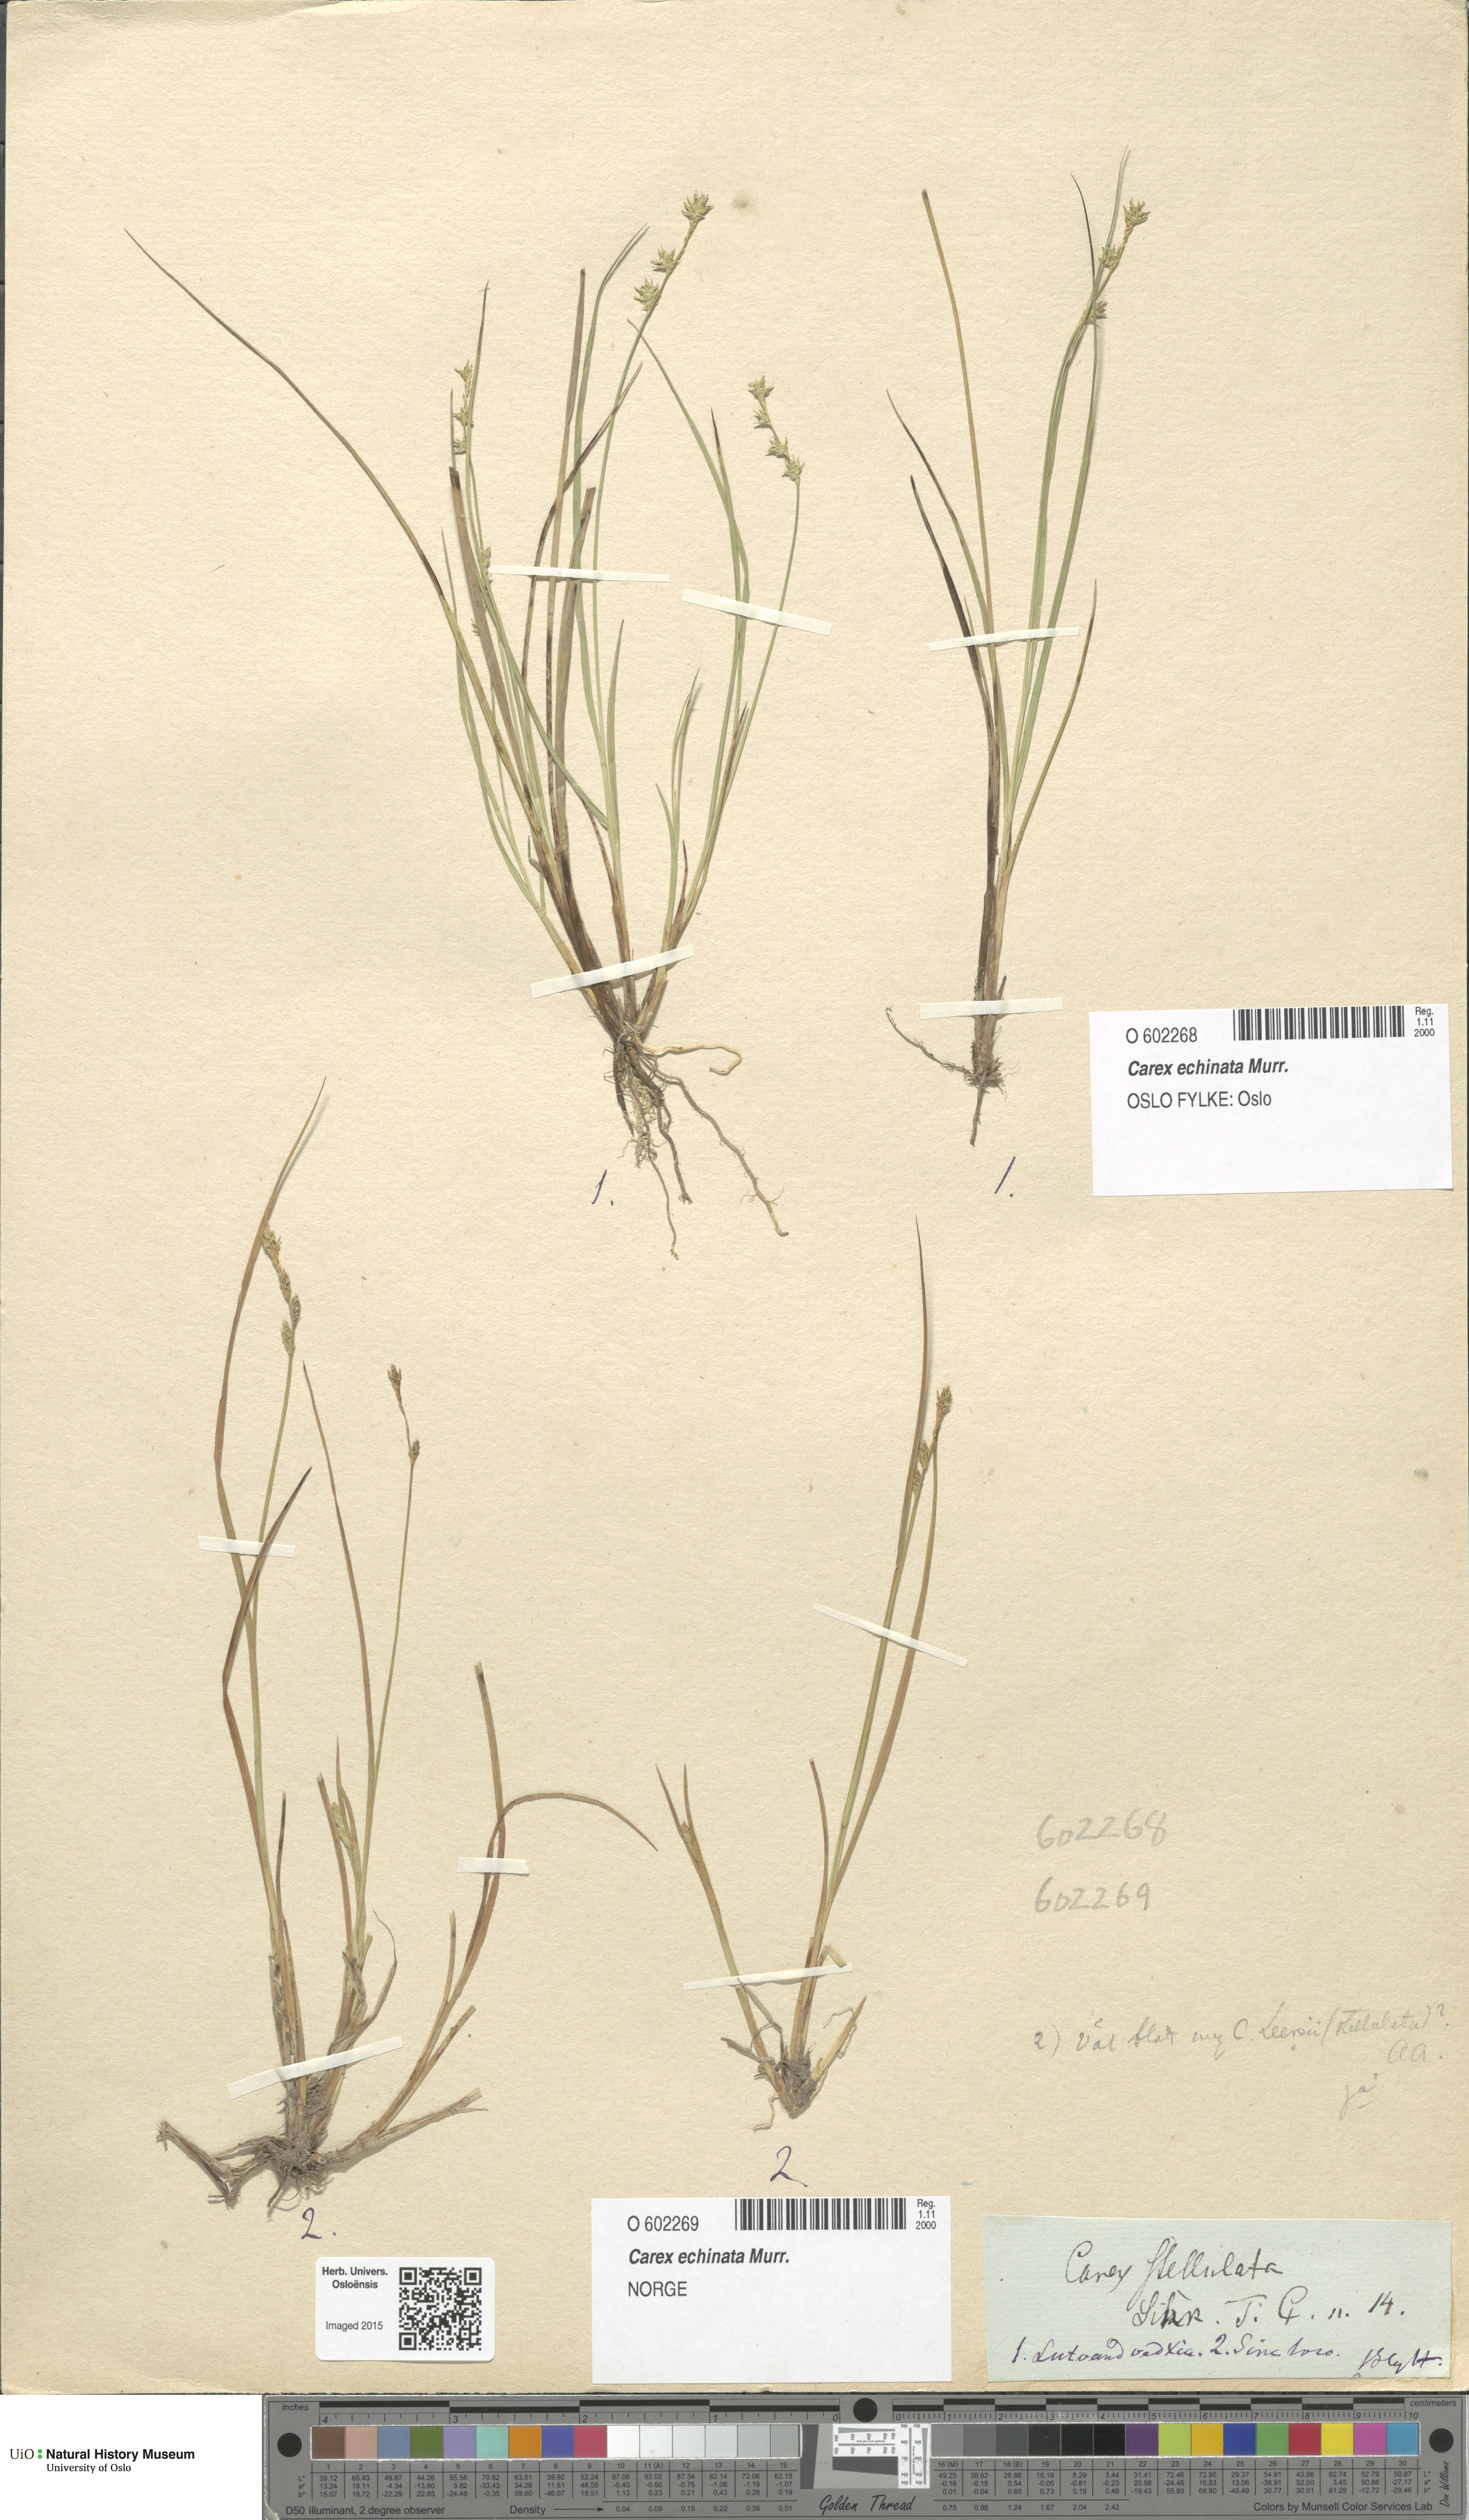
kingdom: Plantae
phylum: Tracheophyta
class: Liliopsida
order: Poales
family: Cyperaceae
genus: Carex
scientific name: Carex echinata
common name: Star sedge
